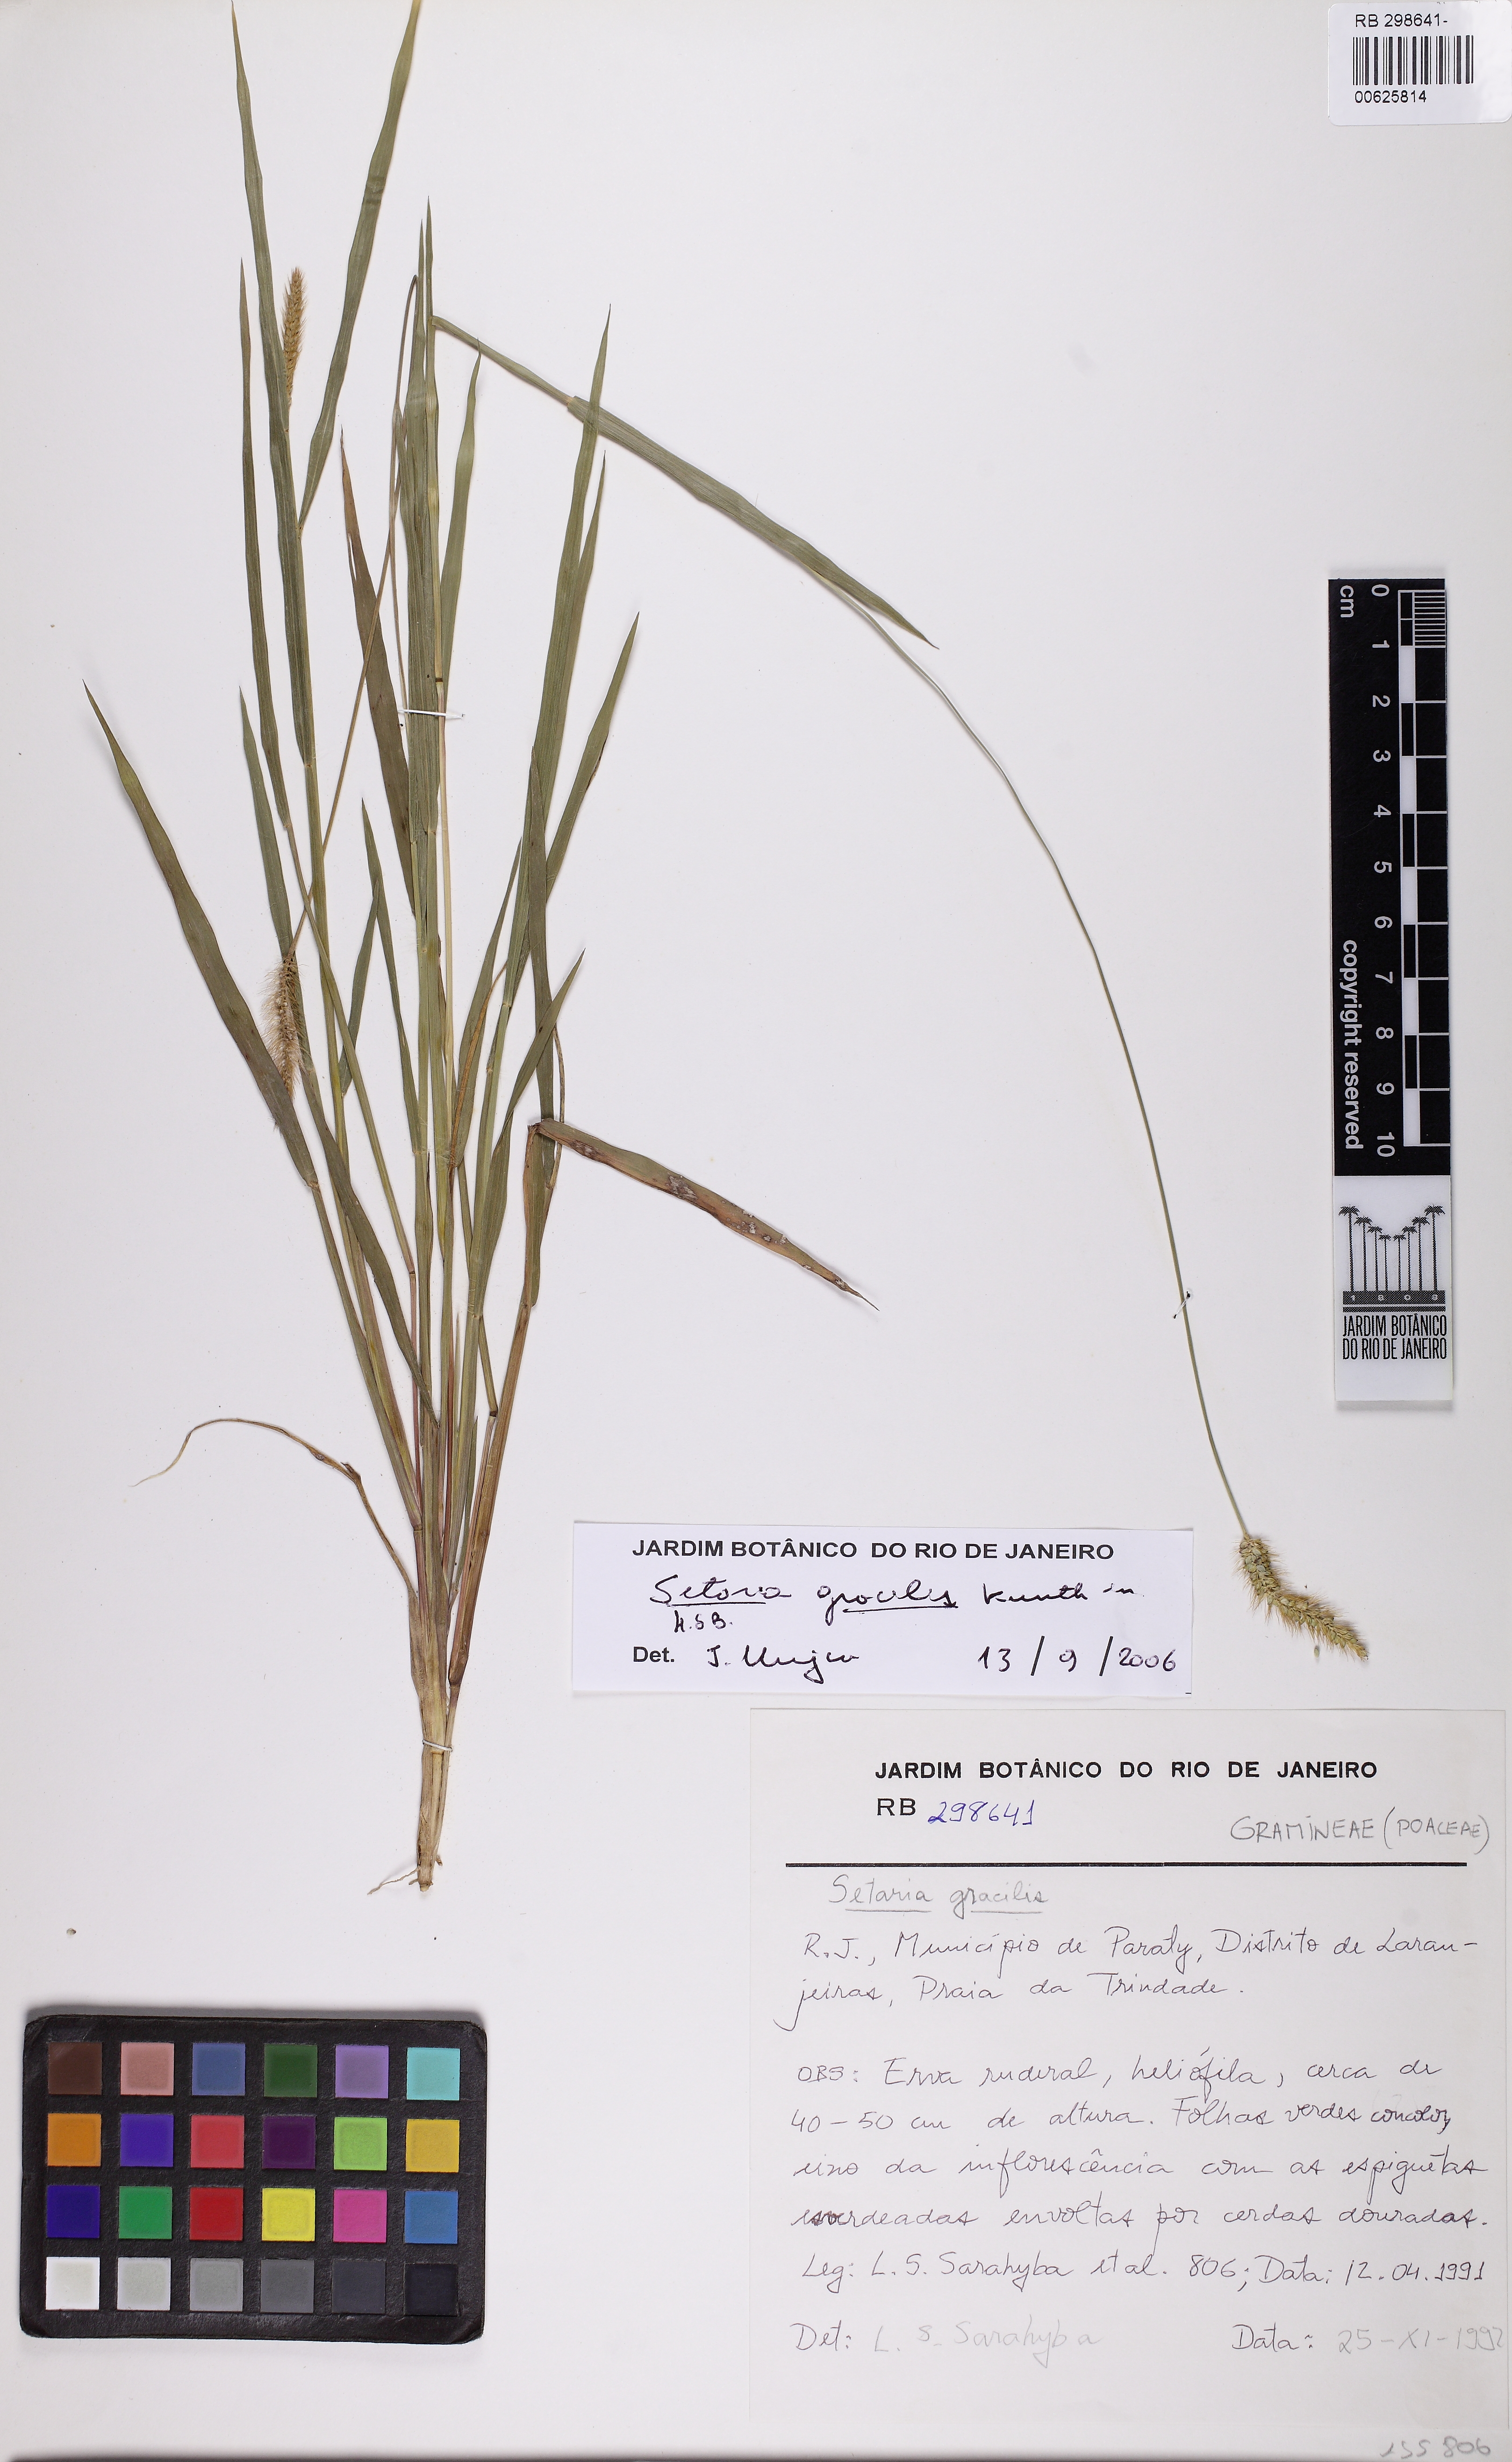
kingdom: Plantae
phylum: Tracheophyta
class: Liliopsida
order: Poales
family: Poaceae
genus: Setaria
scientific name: Setaria parviflora
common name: Knotroot bristle-grass
